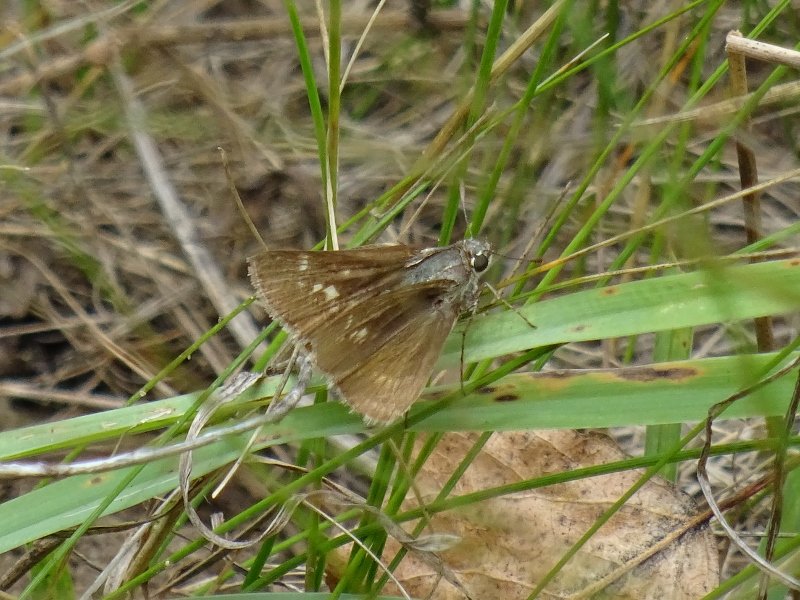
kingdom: Animalia
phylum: Arthropoda
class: Insecta
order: Lepidoptera
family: Hesperiidae
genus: Polites
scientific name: Polites egeremet
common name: Northern Broken-Dash
